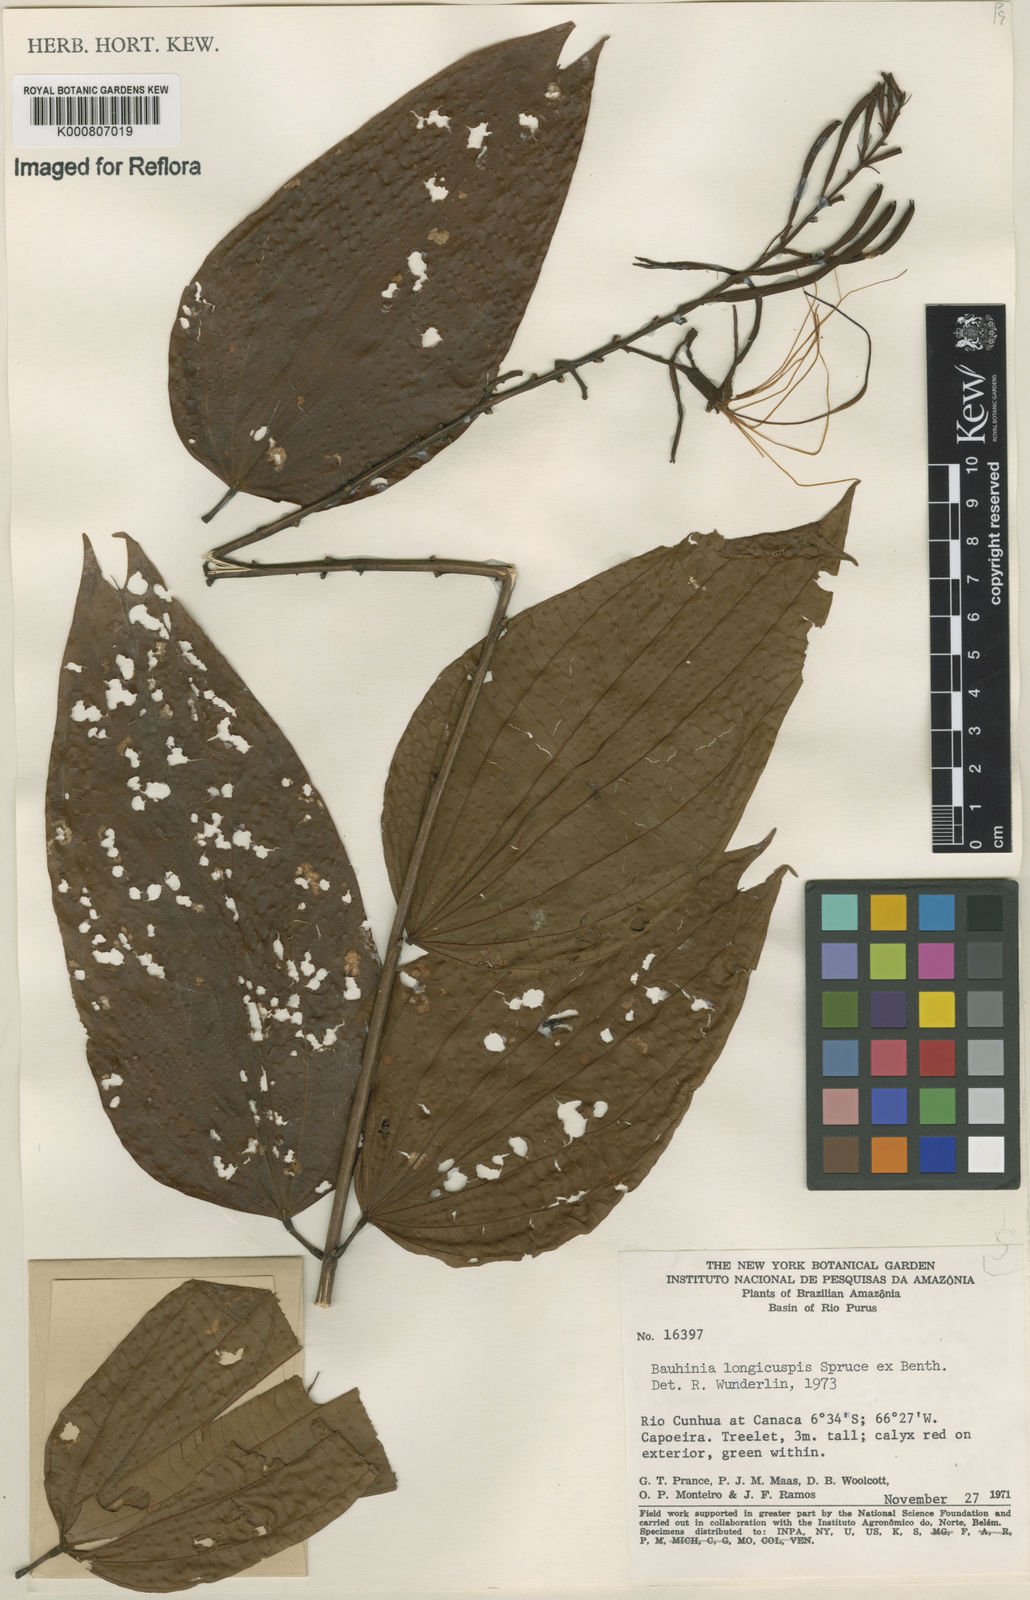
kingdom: Plantae
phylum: Tracheophyta
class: Magnoliopsida
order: Fabales
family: Fabaceae
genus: Bauhinia
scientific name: Bauhinia longicuspis
